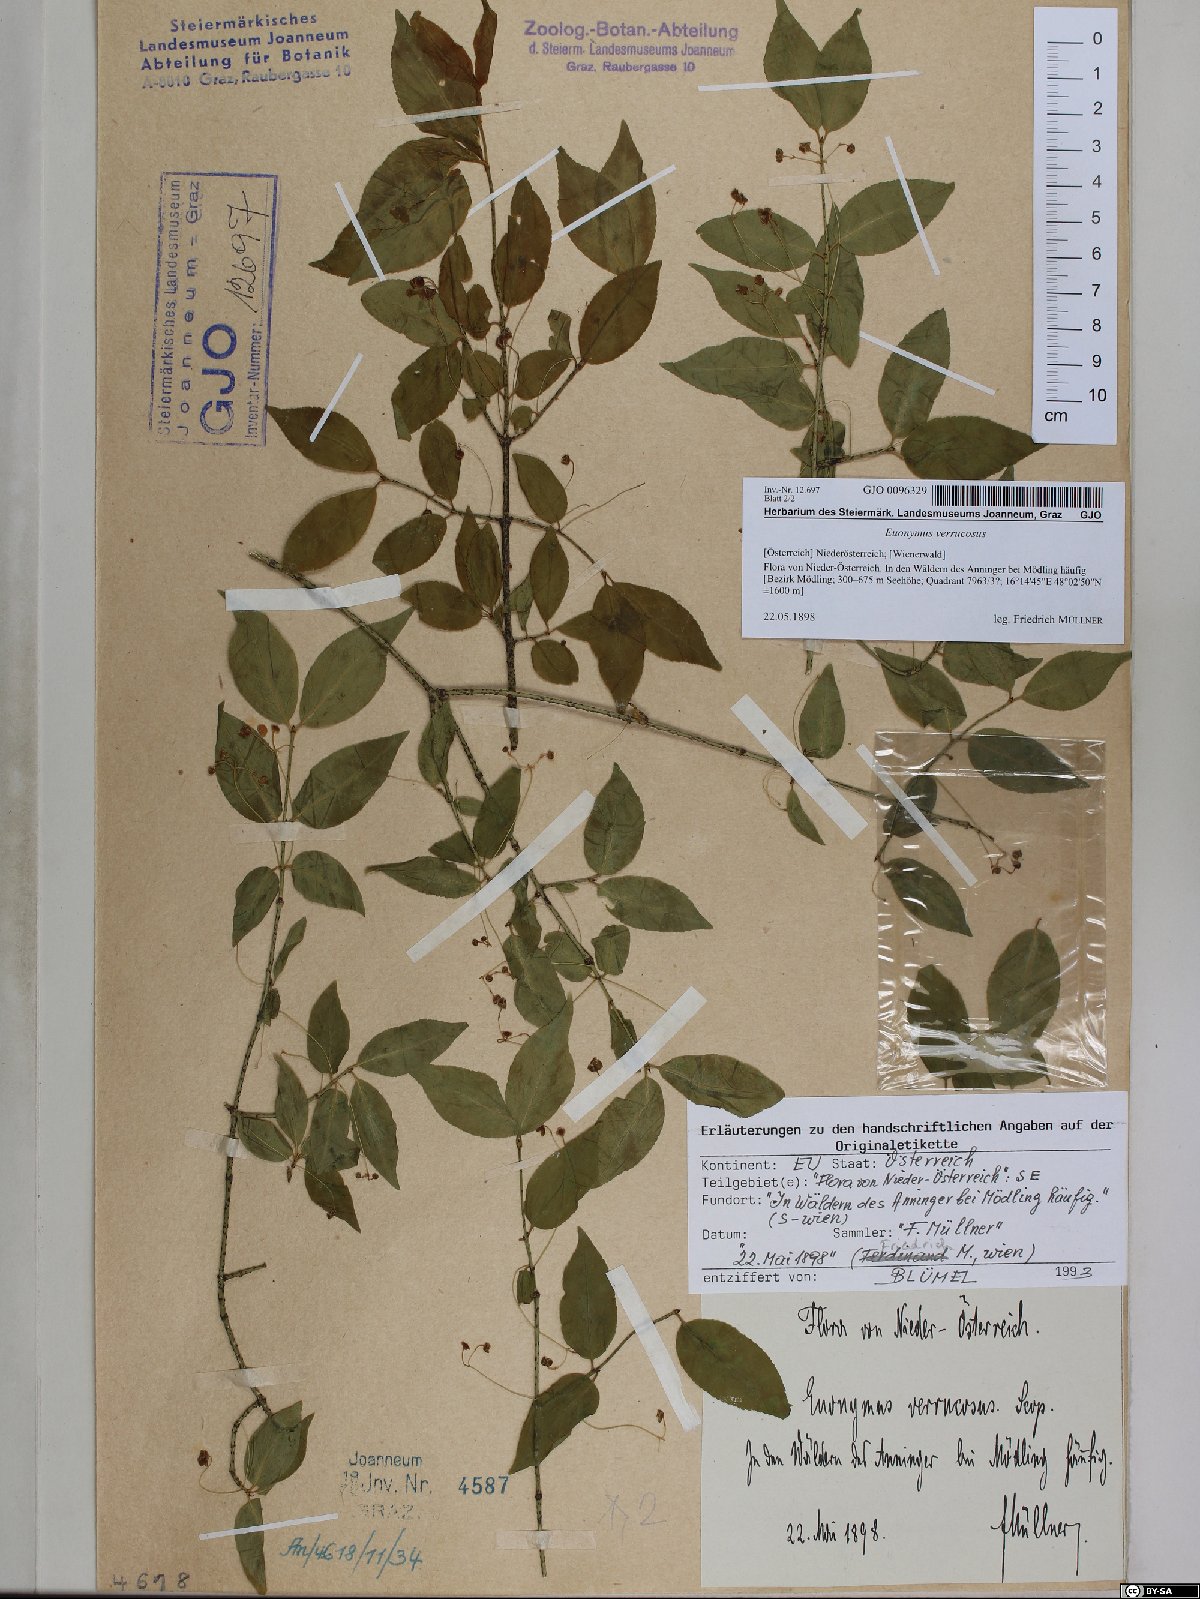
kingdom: Plantae
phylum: Tracheophyta
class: Magnoliopsida
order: Celastrales
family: Celastraceae
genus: Euonymus
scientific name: Euonymus verrucosus
